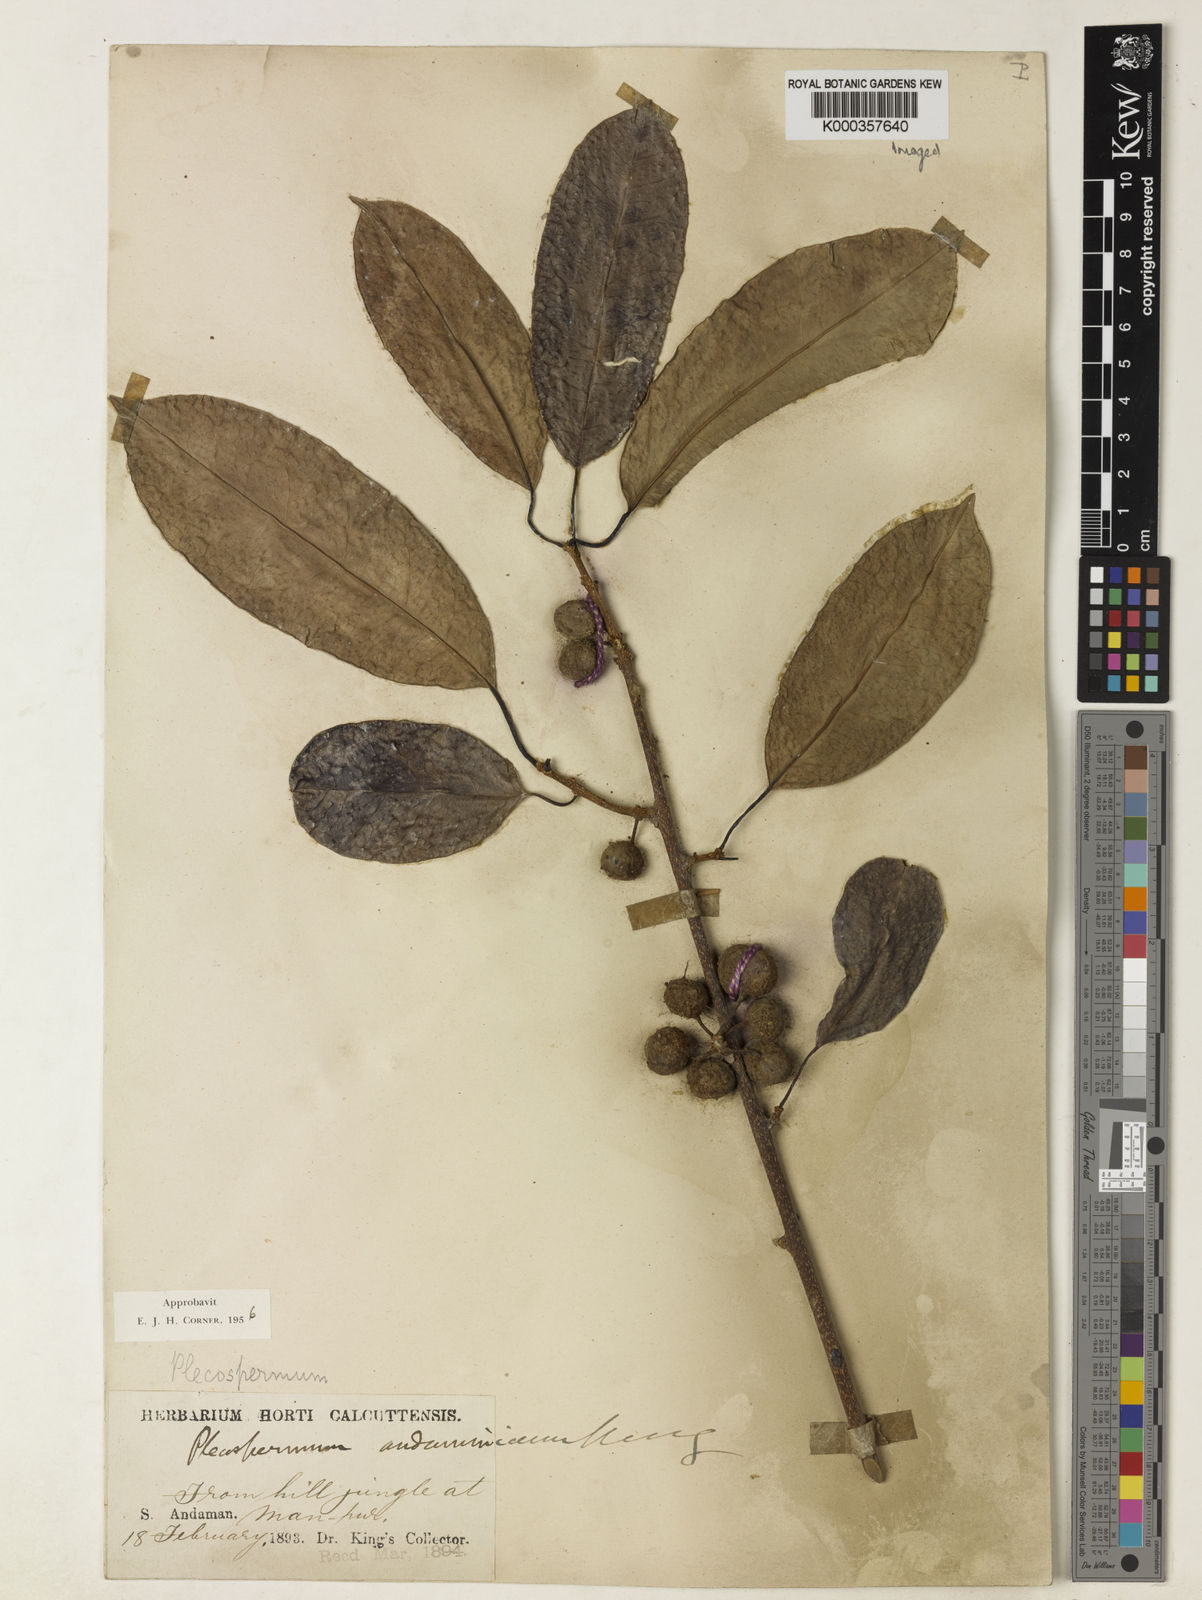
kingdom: Plantae
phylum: Tracheophyta
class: Magnoliopsida
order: Rosales
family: Moraceae
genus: Maclura
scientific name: Maclura andamanica
